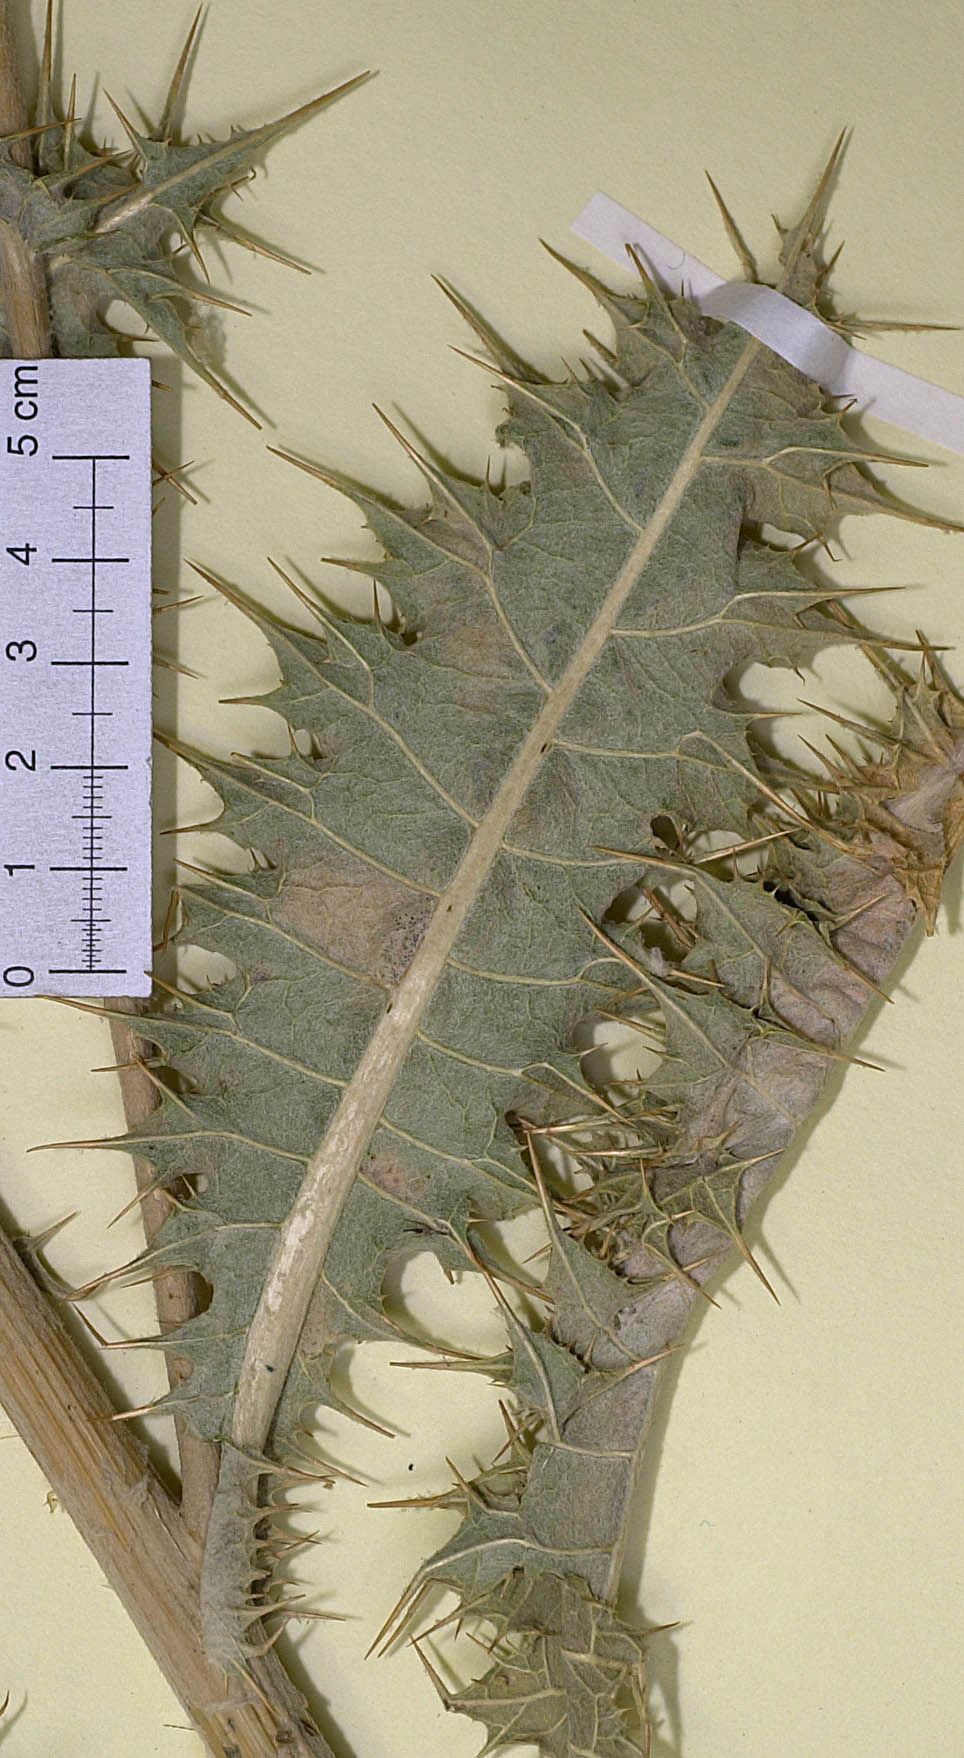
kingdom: Plantae
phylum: Tracheophyta
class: Magnoliopsida
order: Asterales
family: Asteraceae
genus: Cousinia
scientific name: Cousinia novissima
